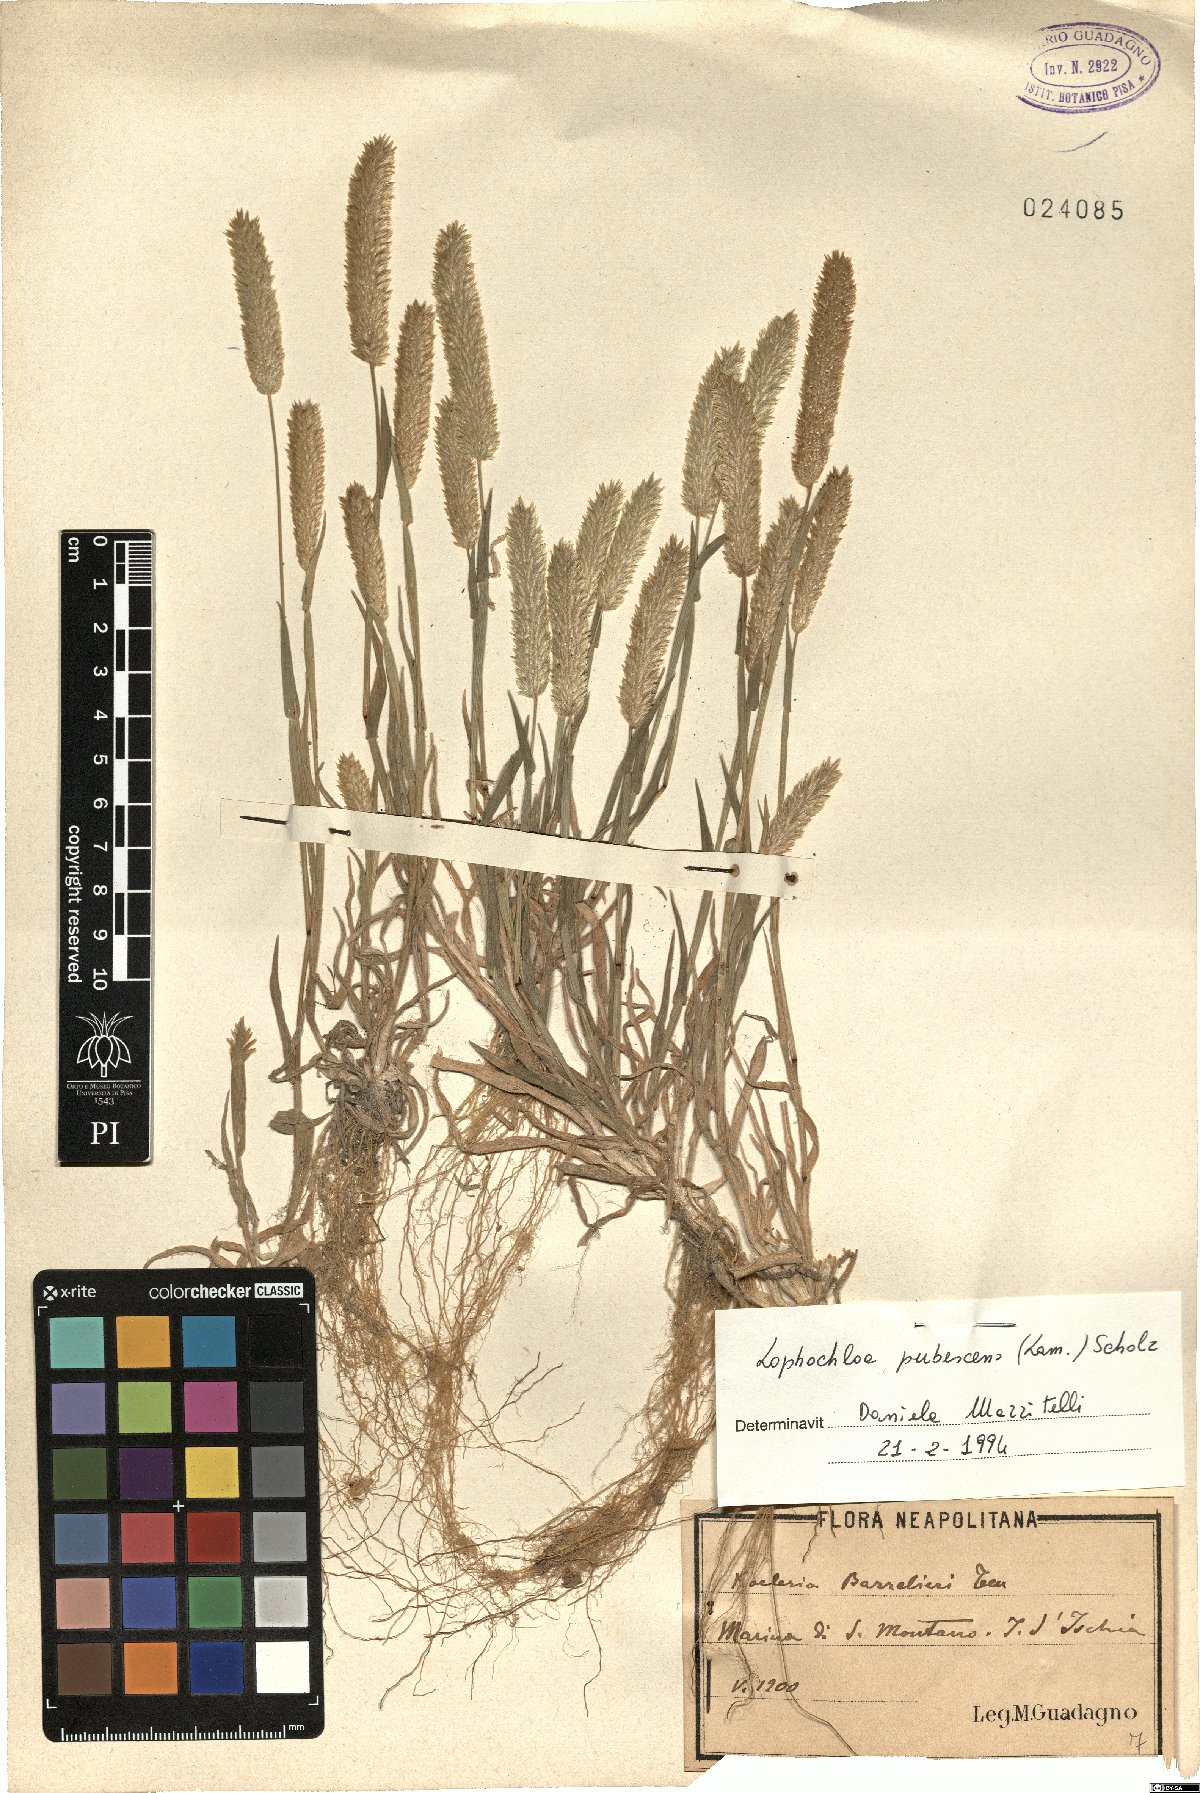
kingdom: Plantae
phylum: Tracheophyta
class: Liliopsida
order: Poales
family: Poaceae
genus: Rostraria
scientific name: Rostraria litorea
